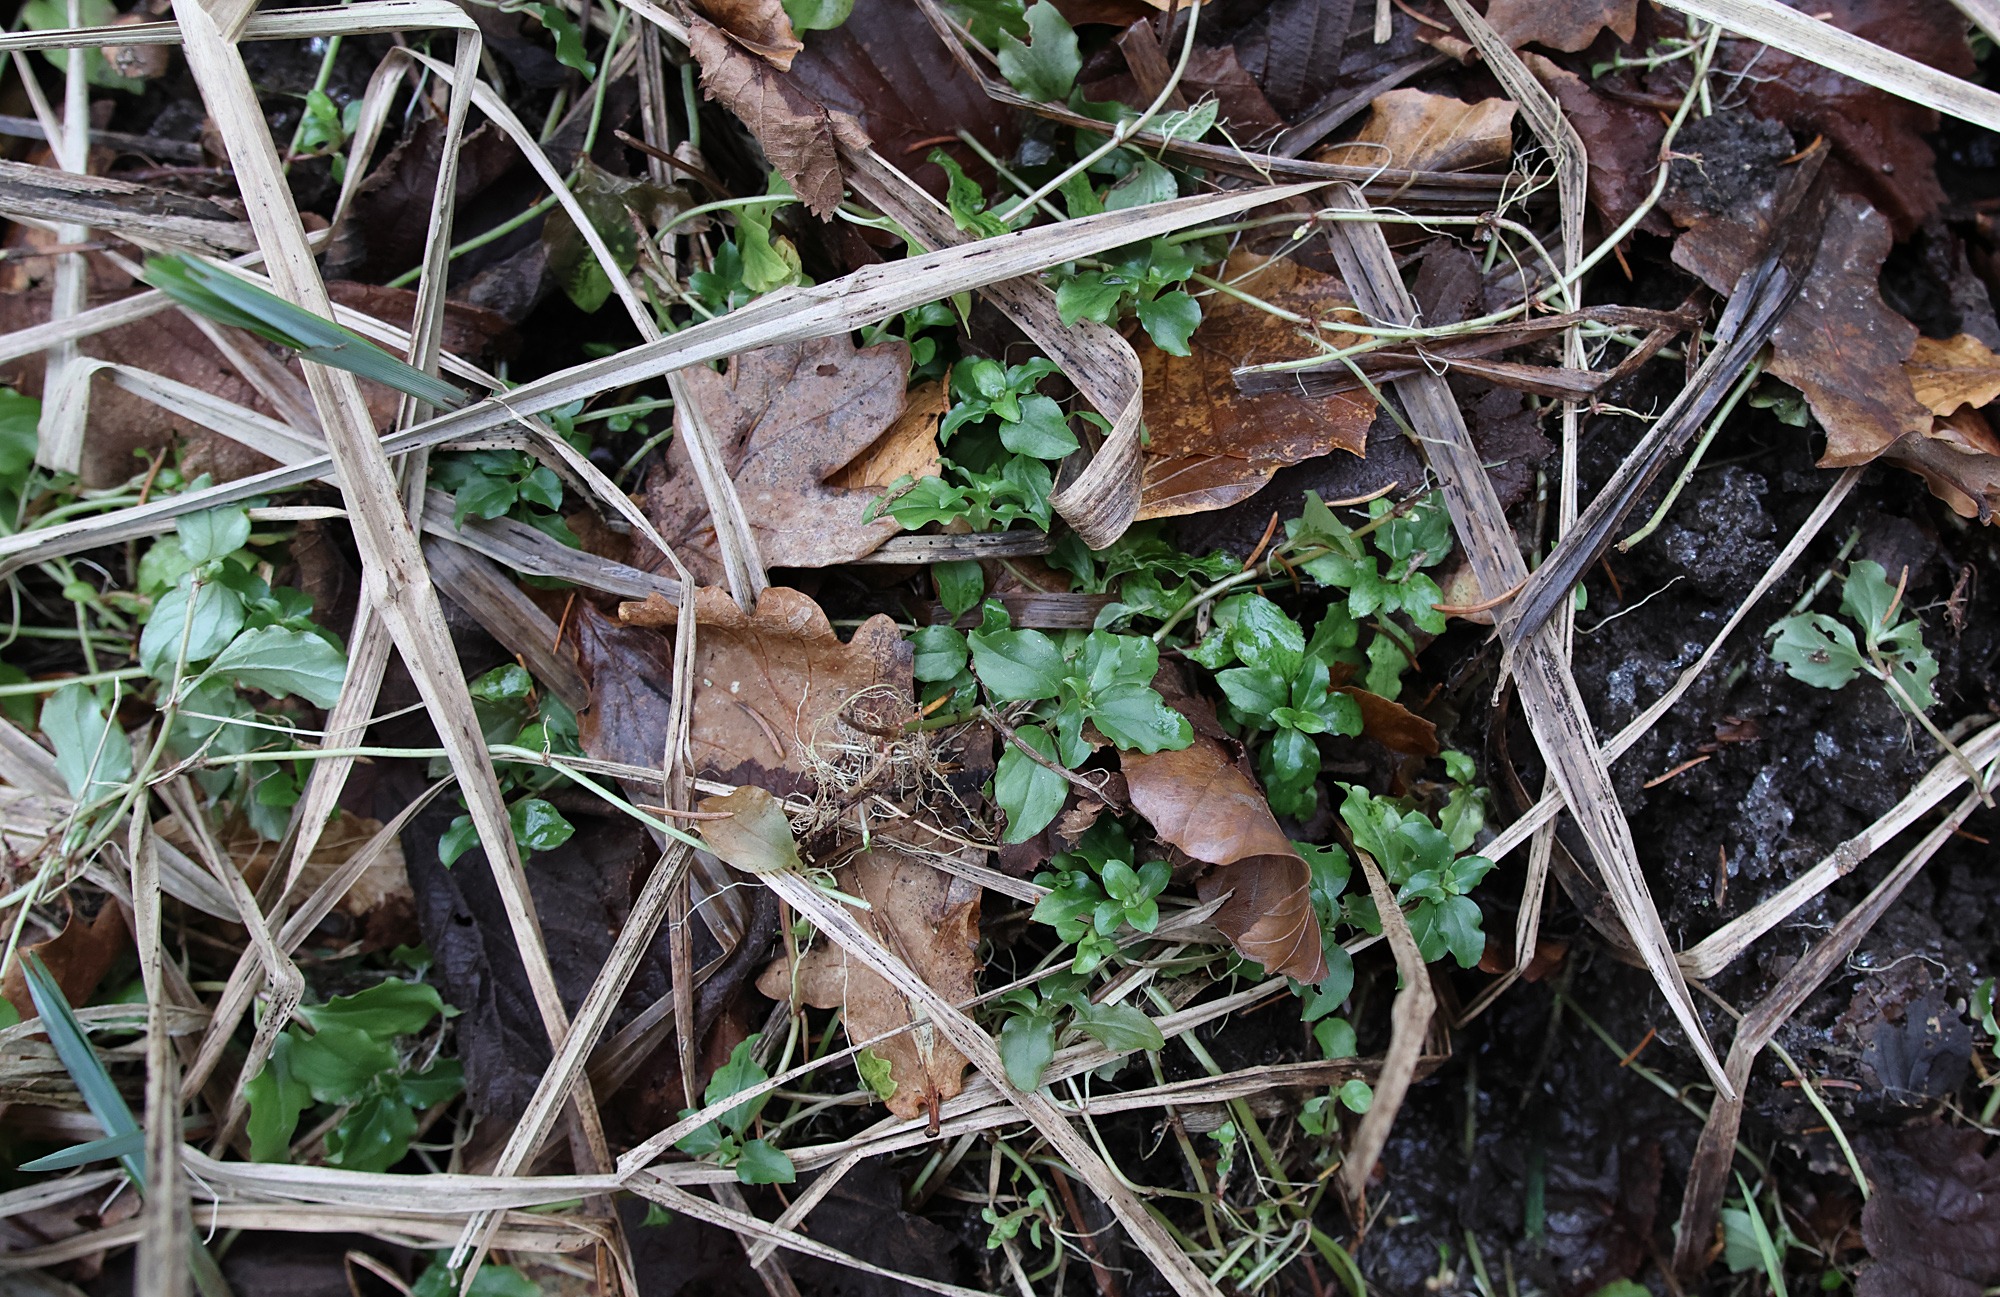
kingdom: Plantae
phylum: Tracheophyta
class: Magnoliopsida
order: Ericales
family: Primulaceae
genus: Lysimachia
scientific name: Lysimachia nemorum
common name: Lund-fredløs
